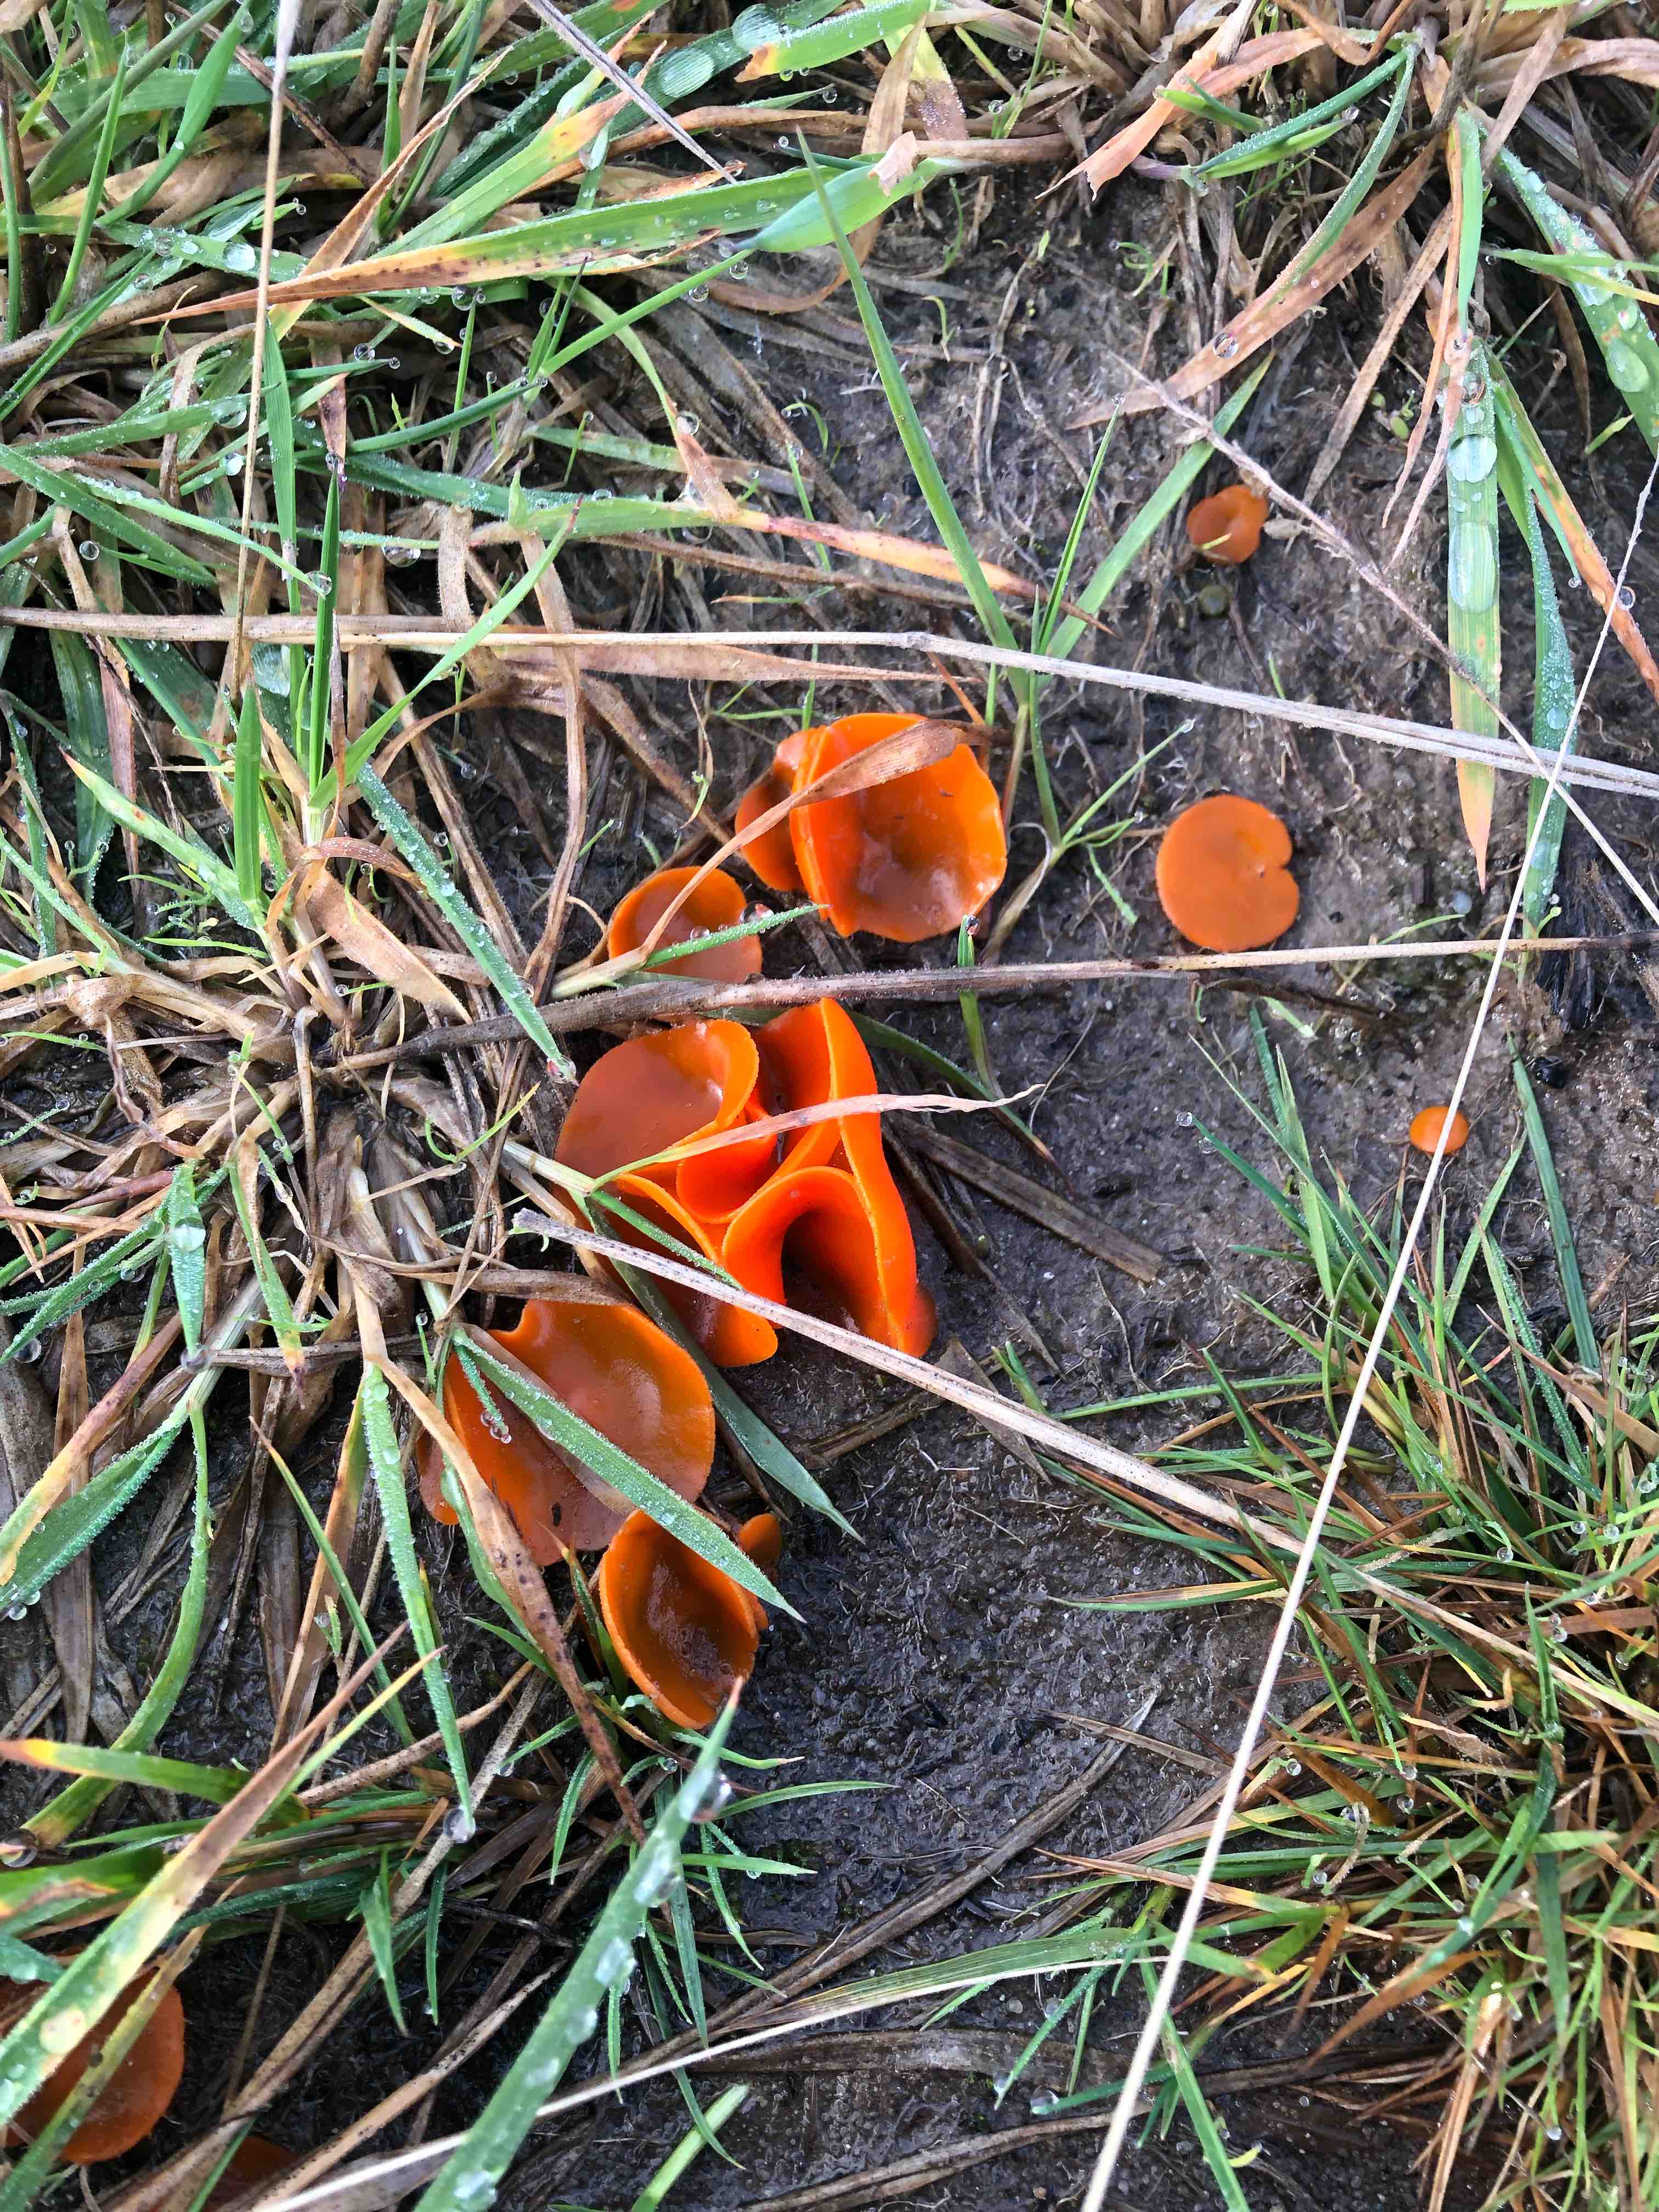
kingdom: Fungi
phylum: Ascomycota
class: Pezizomycetes
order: Pezizales
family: Pyronemataceae
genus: Aleuria
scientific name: Aleuria aurantia
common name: almindelig orangebæger
